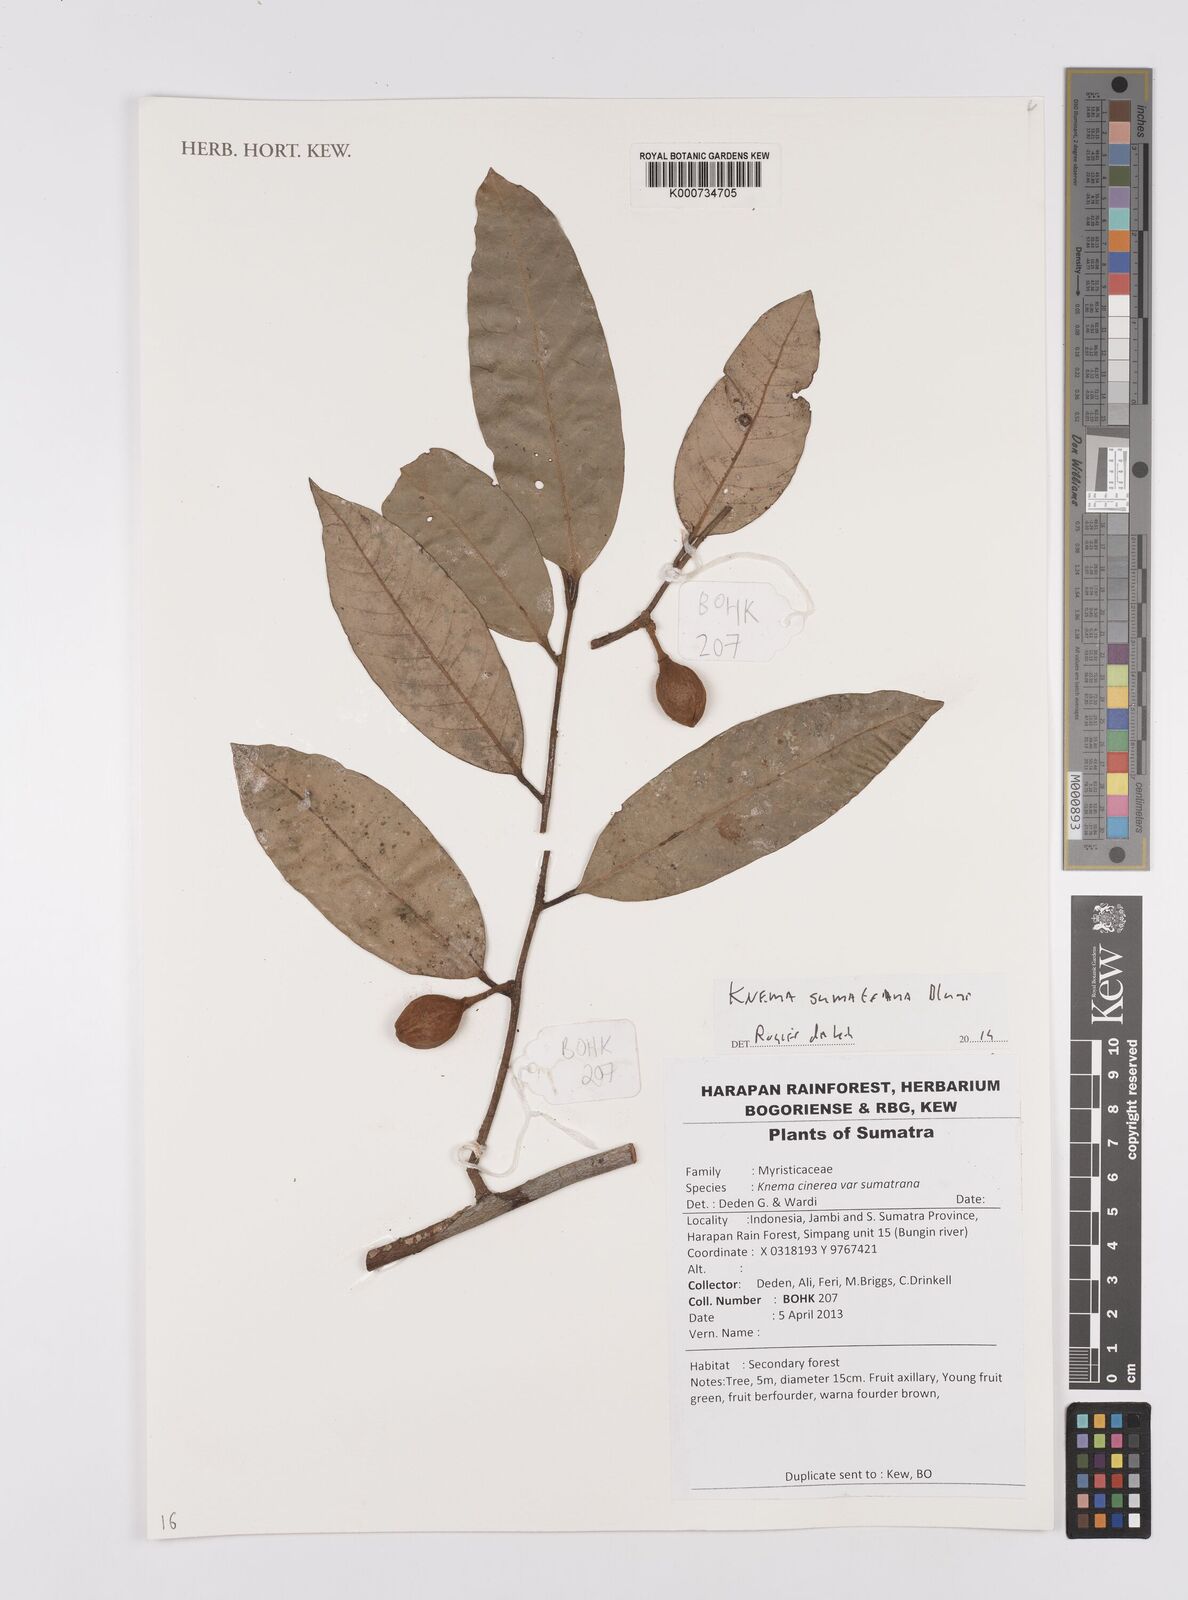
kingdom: Plantae
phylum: Tracheophyta
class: Magnoliopsida
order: Magnoliales
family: Myristicaceae
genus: Knema
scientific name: Knema sumatrana
